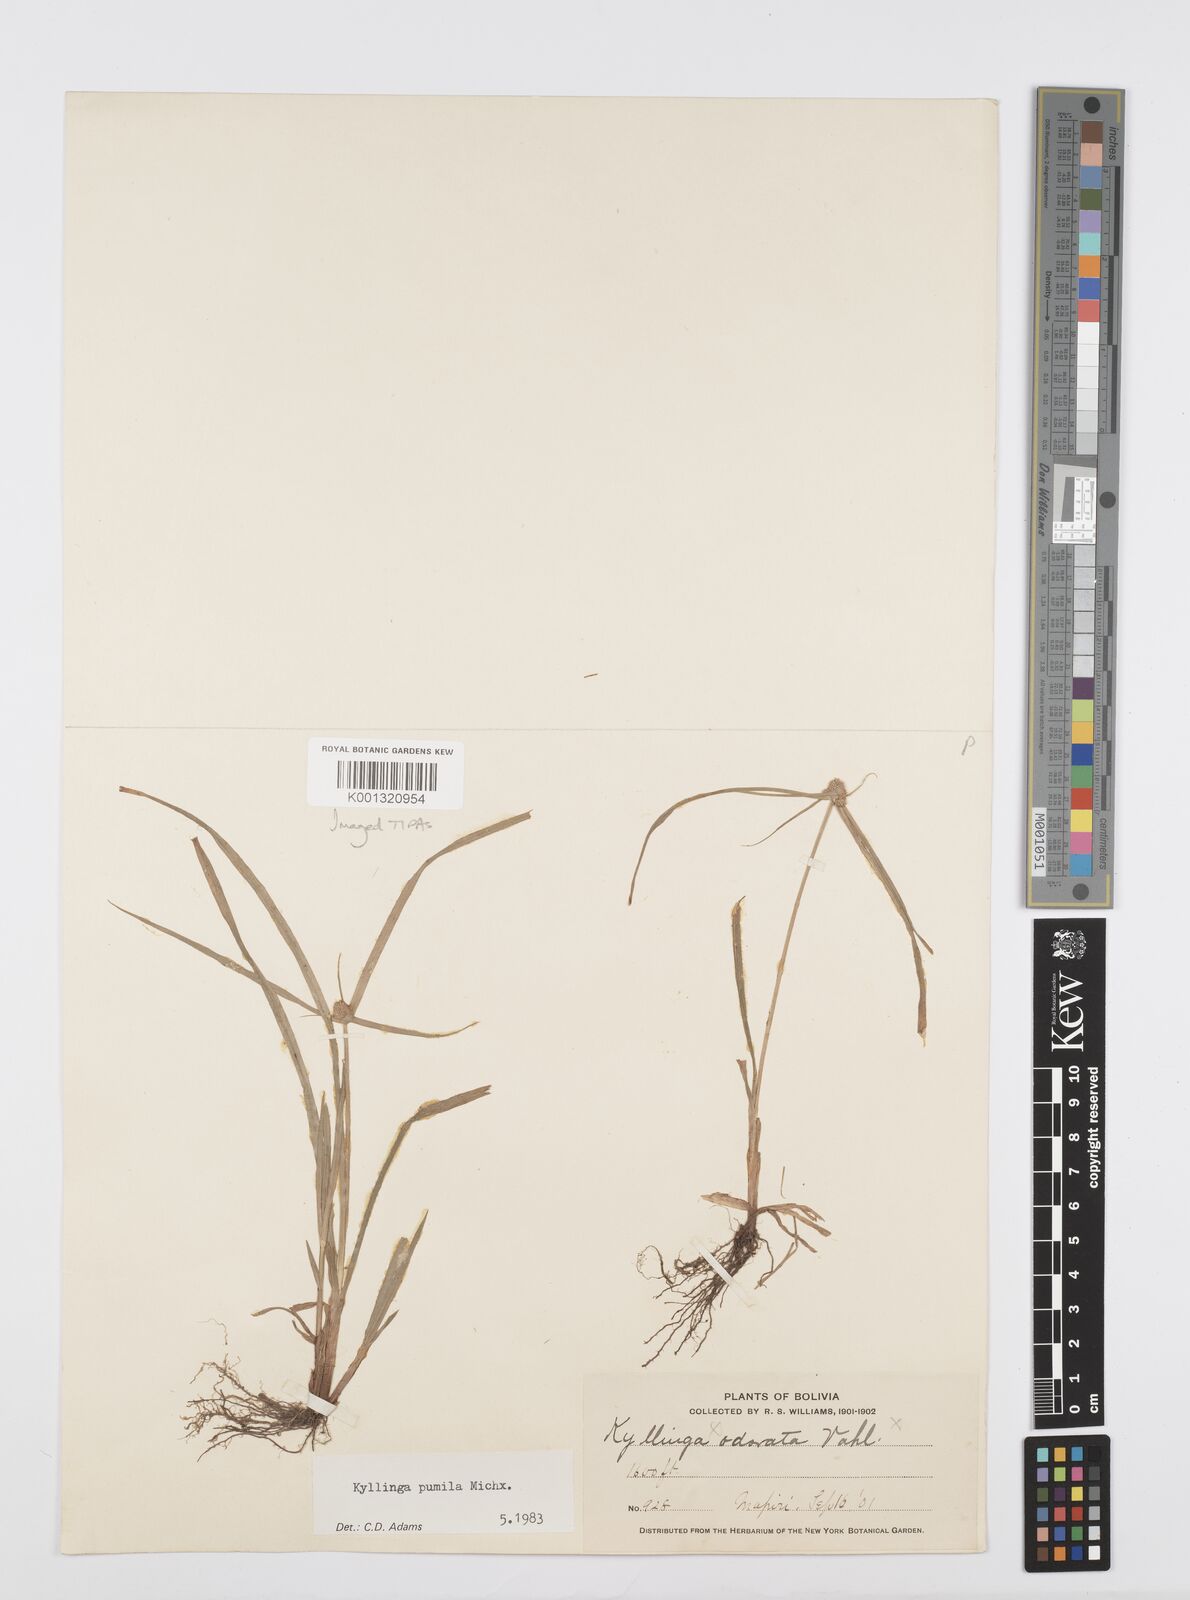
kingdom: Plantae
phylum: Tracheophyta
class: Liliopsida
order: Poales
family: Cyperaceae
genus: Cyperus
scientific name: Cyperus
